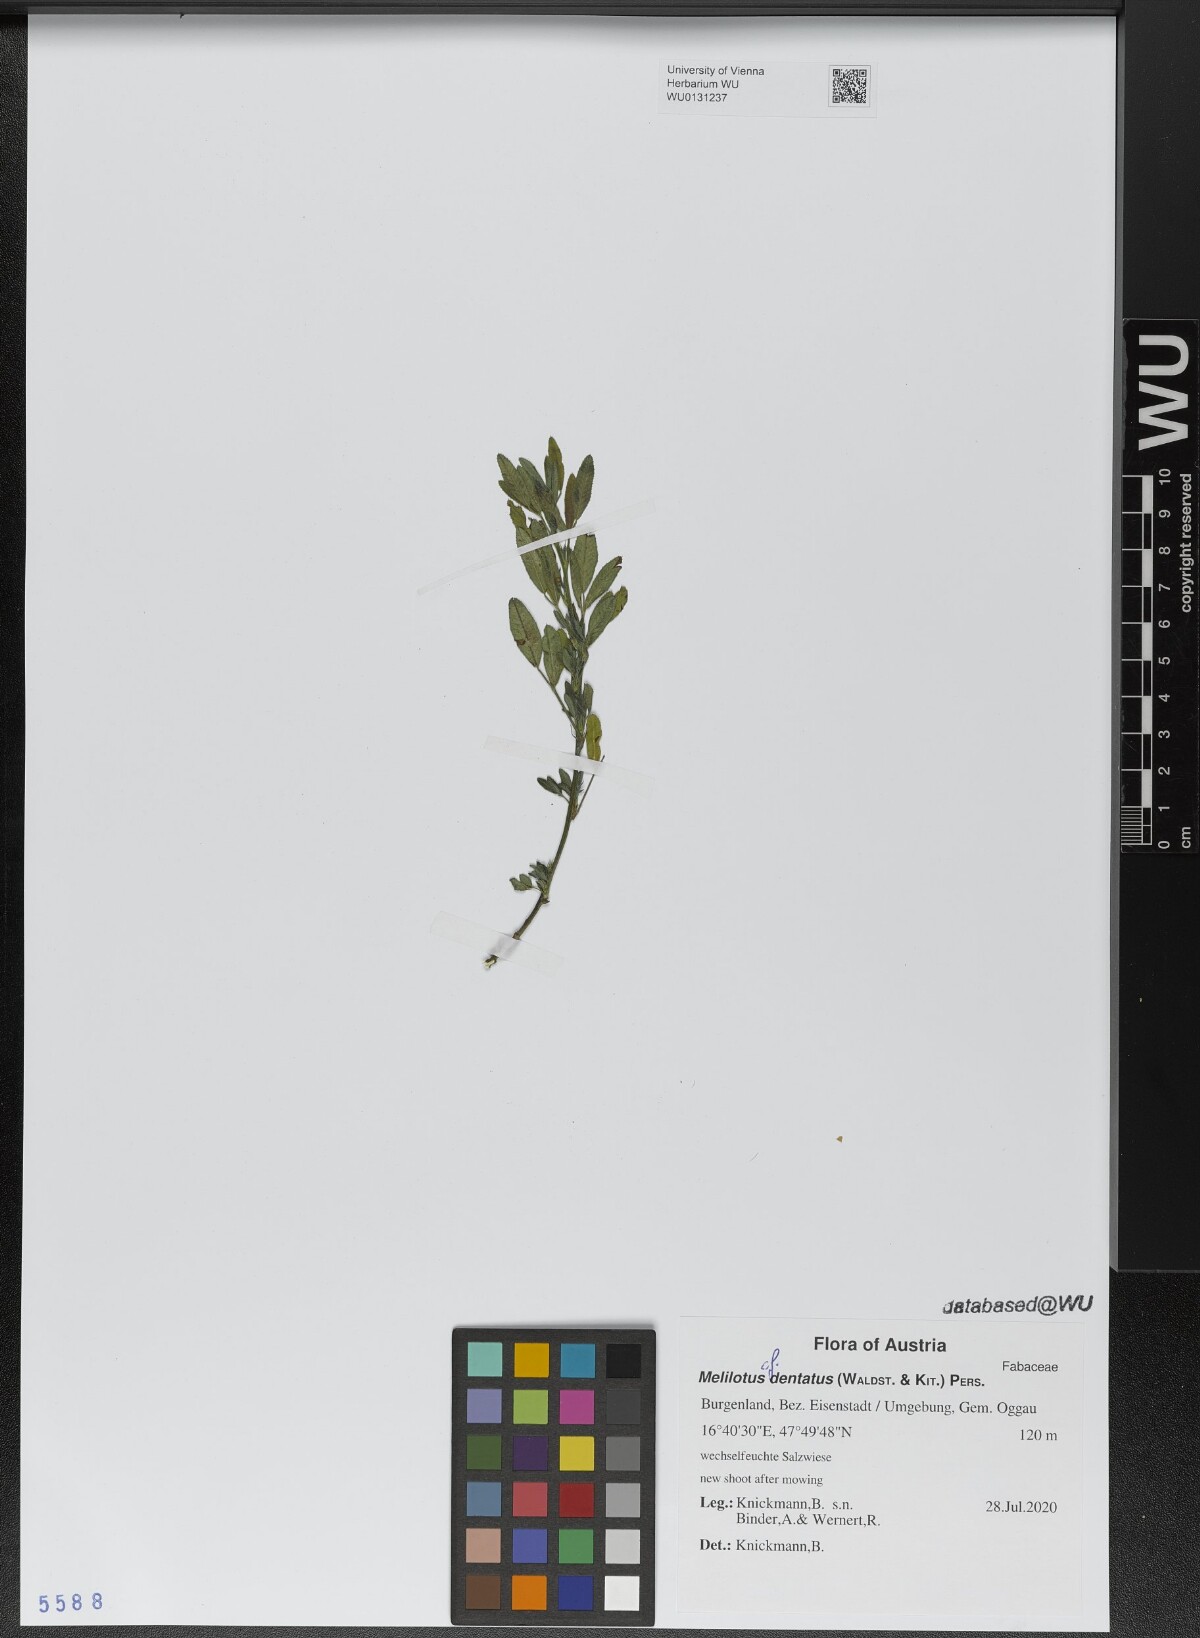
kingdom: Plantae
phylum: Tracheophyta
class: Magnoliopsida
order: Fabales
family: Fabaceae
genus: Melilotus
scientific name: Melilotus dentatus
